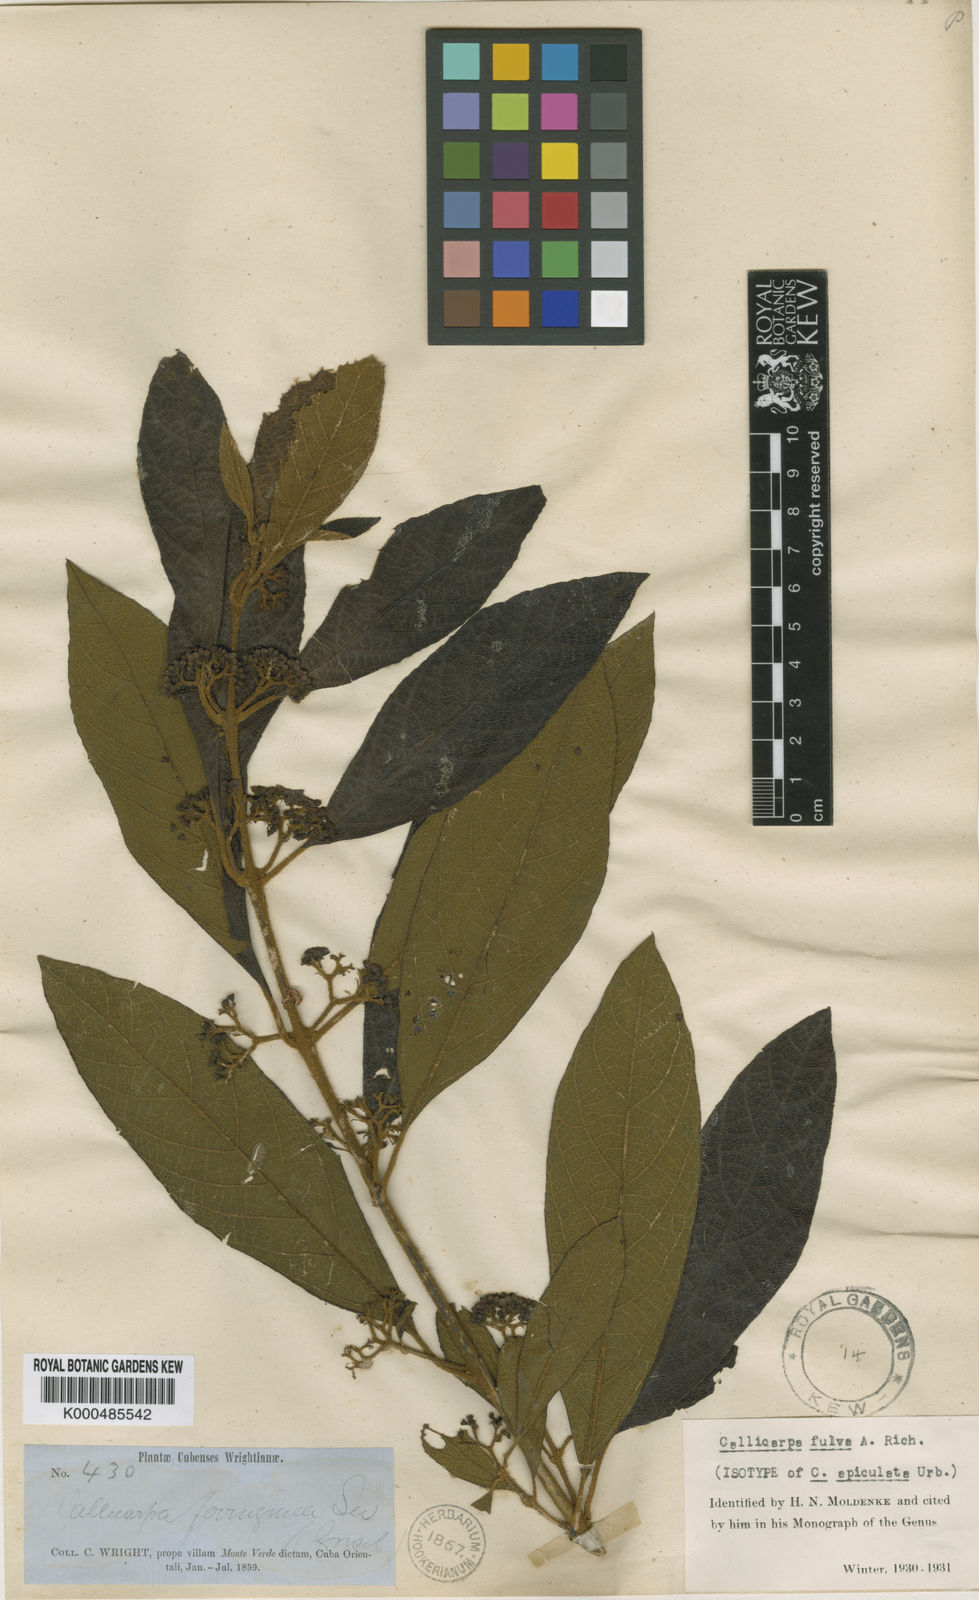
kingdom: Plantae
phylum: Tracheophyta
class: Magnoliopsida
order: Lamiales
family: Lamiaceae
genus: Callicarpa
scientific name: Callicarpa fulva
